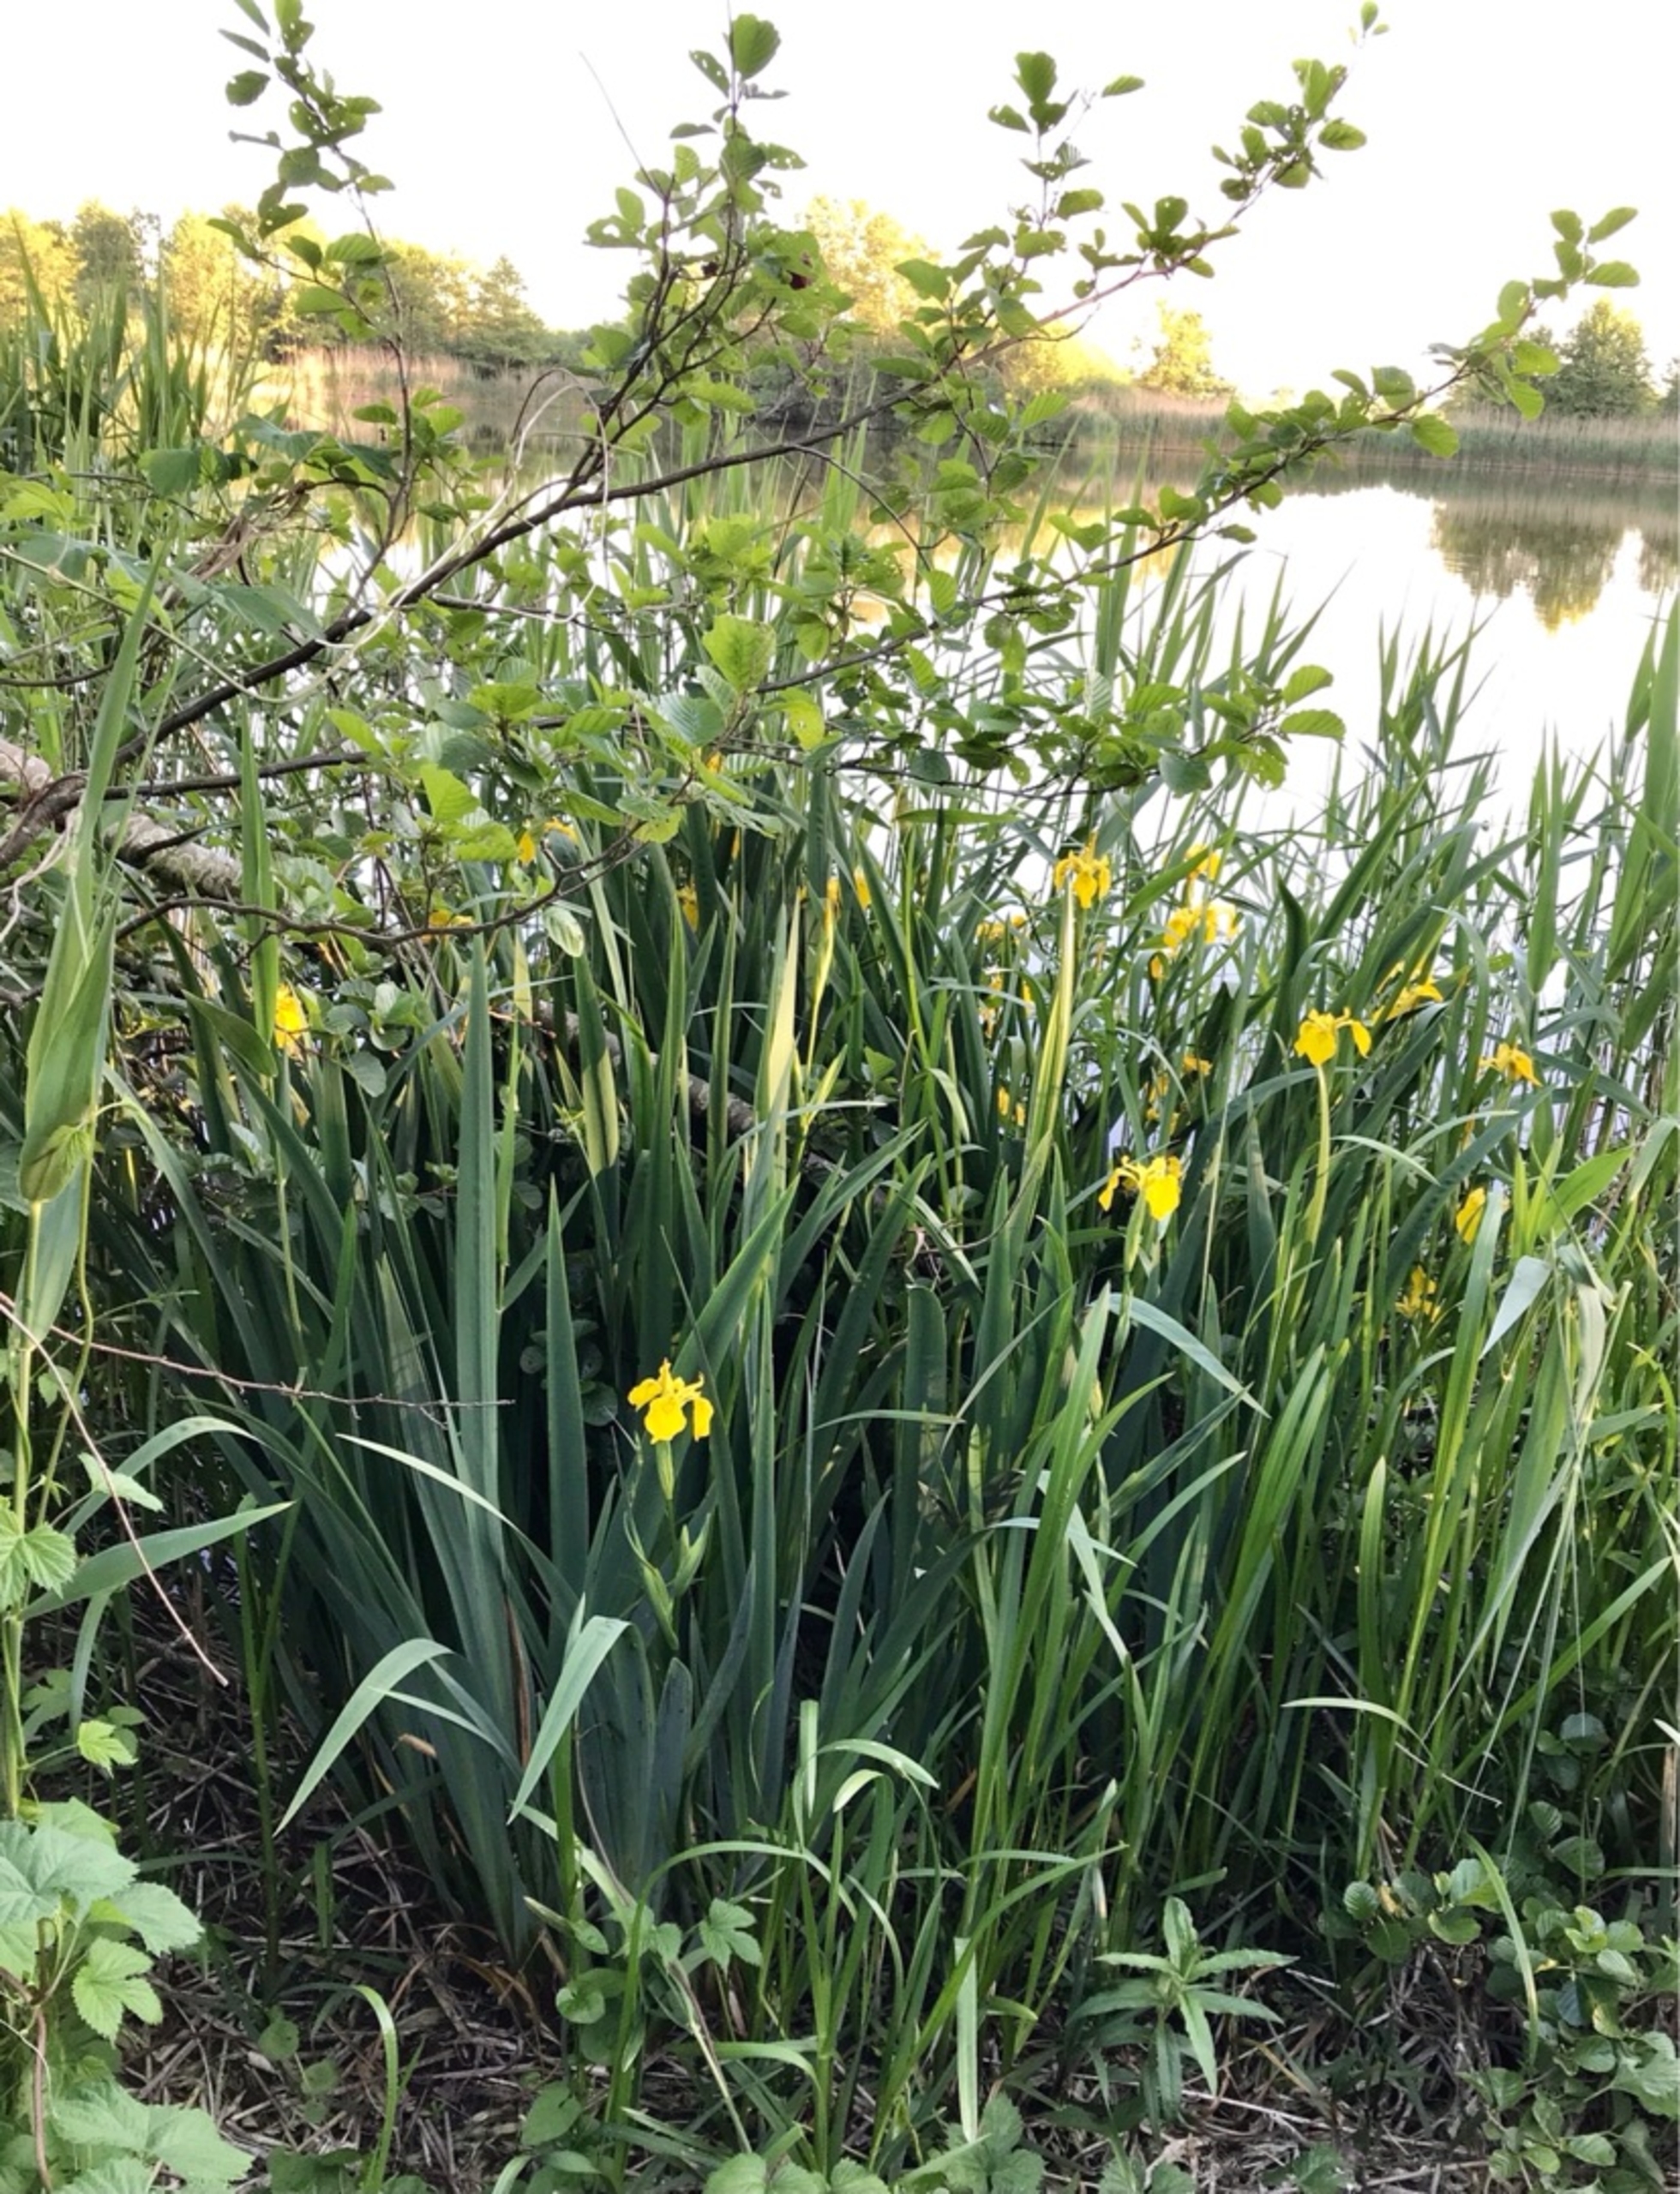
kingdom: Plantae
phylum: Tracheophyta
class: Liliopsida
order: Asparagales
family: Iridaceae
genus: Iris
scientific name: Iris pseudacorus
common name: Gul iris
